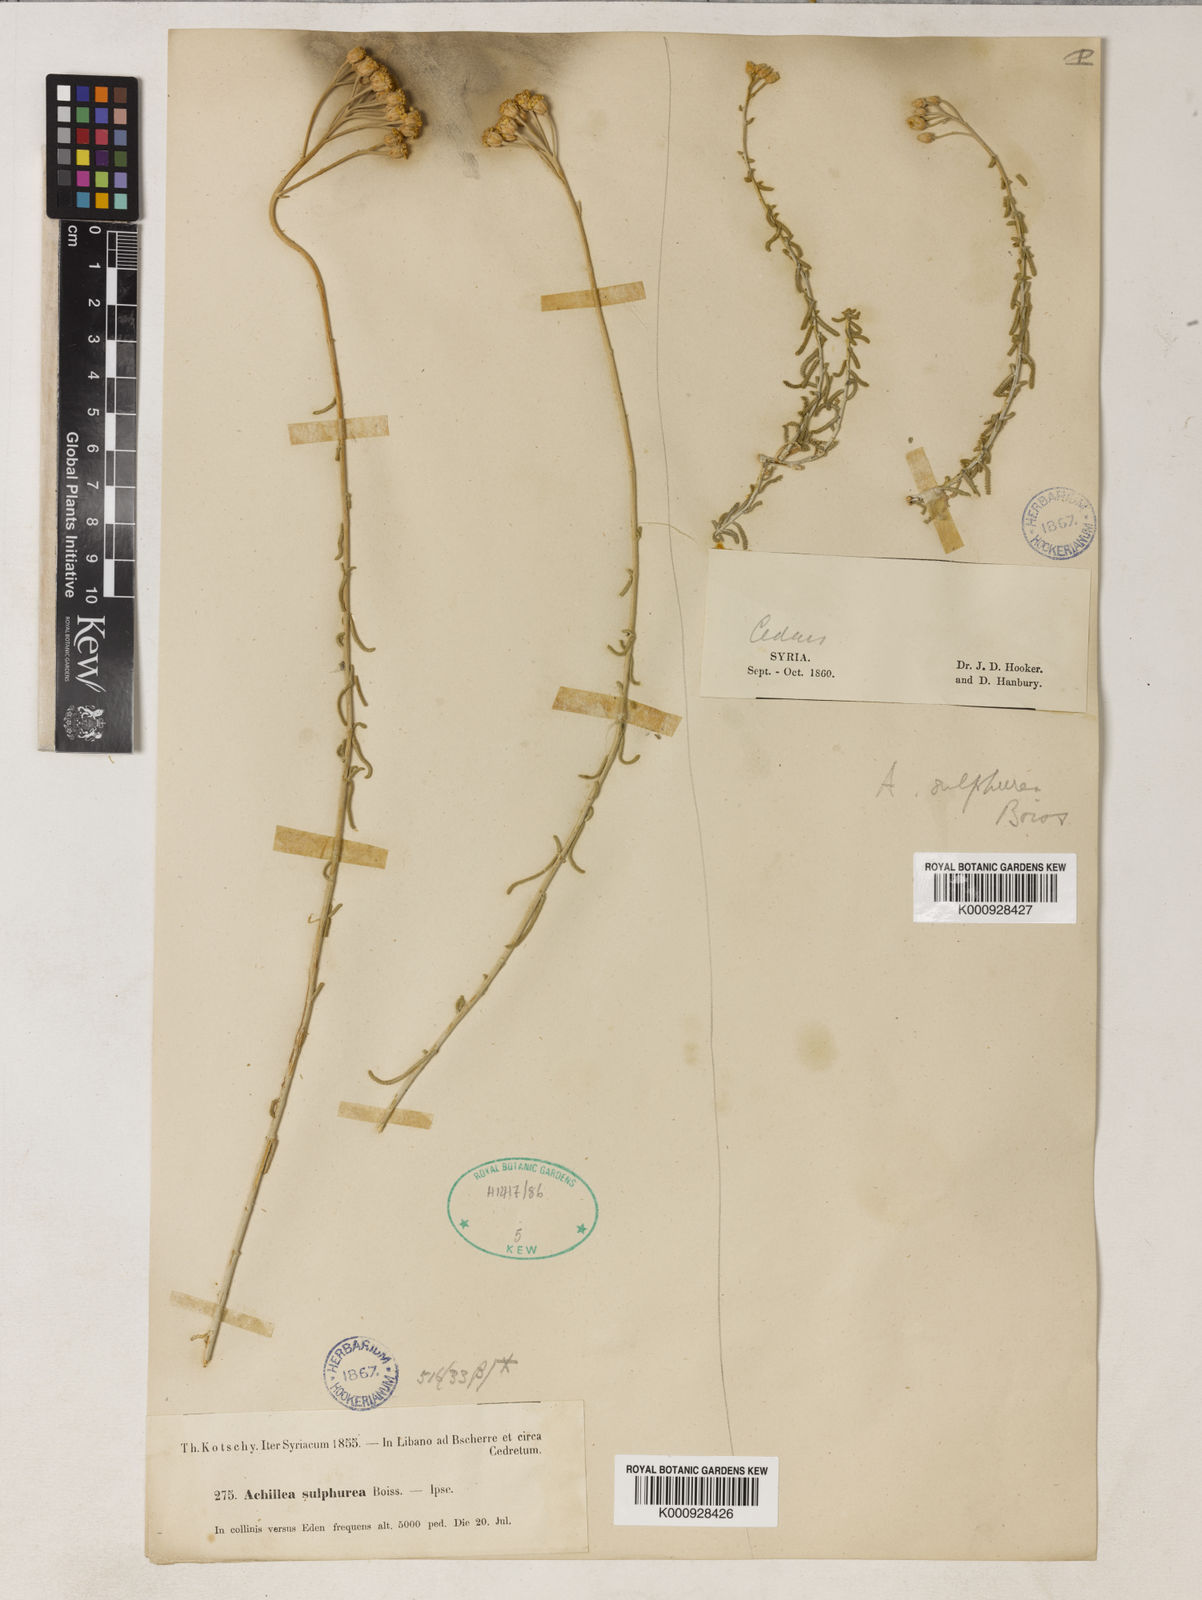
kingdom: Plantae
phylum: Tracheophyta
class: Magnoliopsida
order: Asterales
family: Asteraceae
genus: Achillea
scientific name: Achillea falcata
